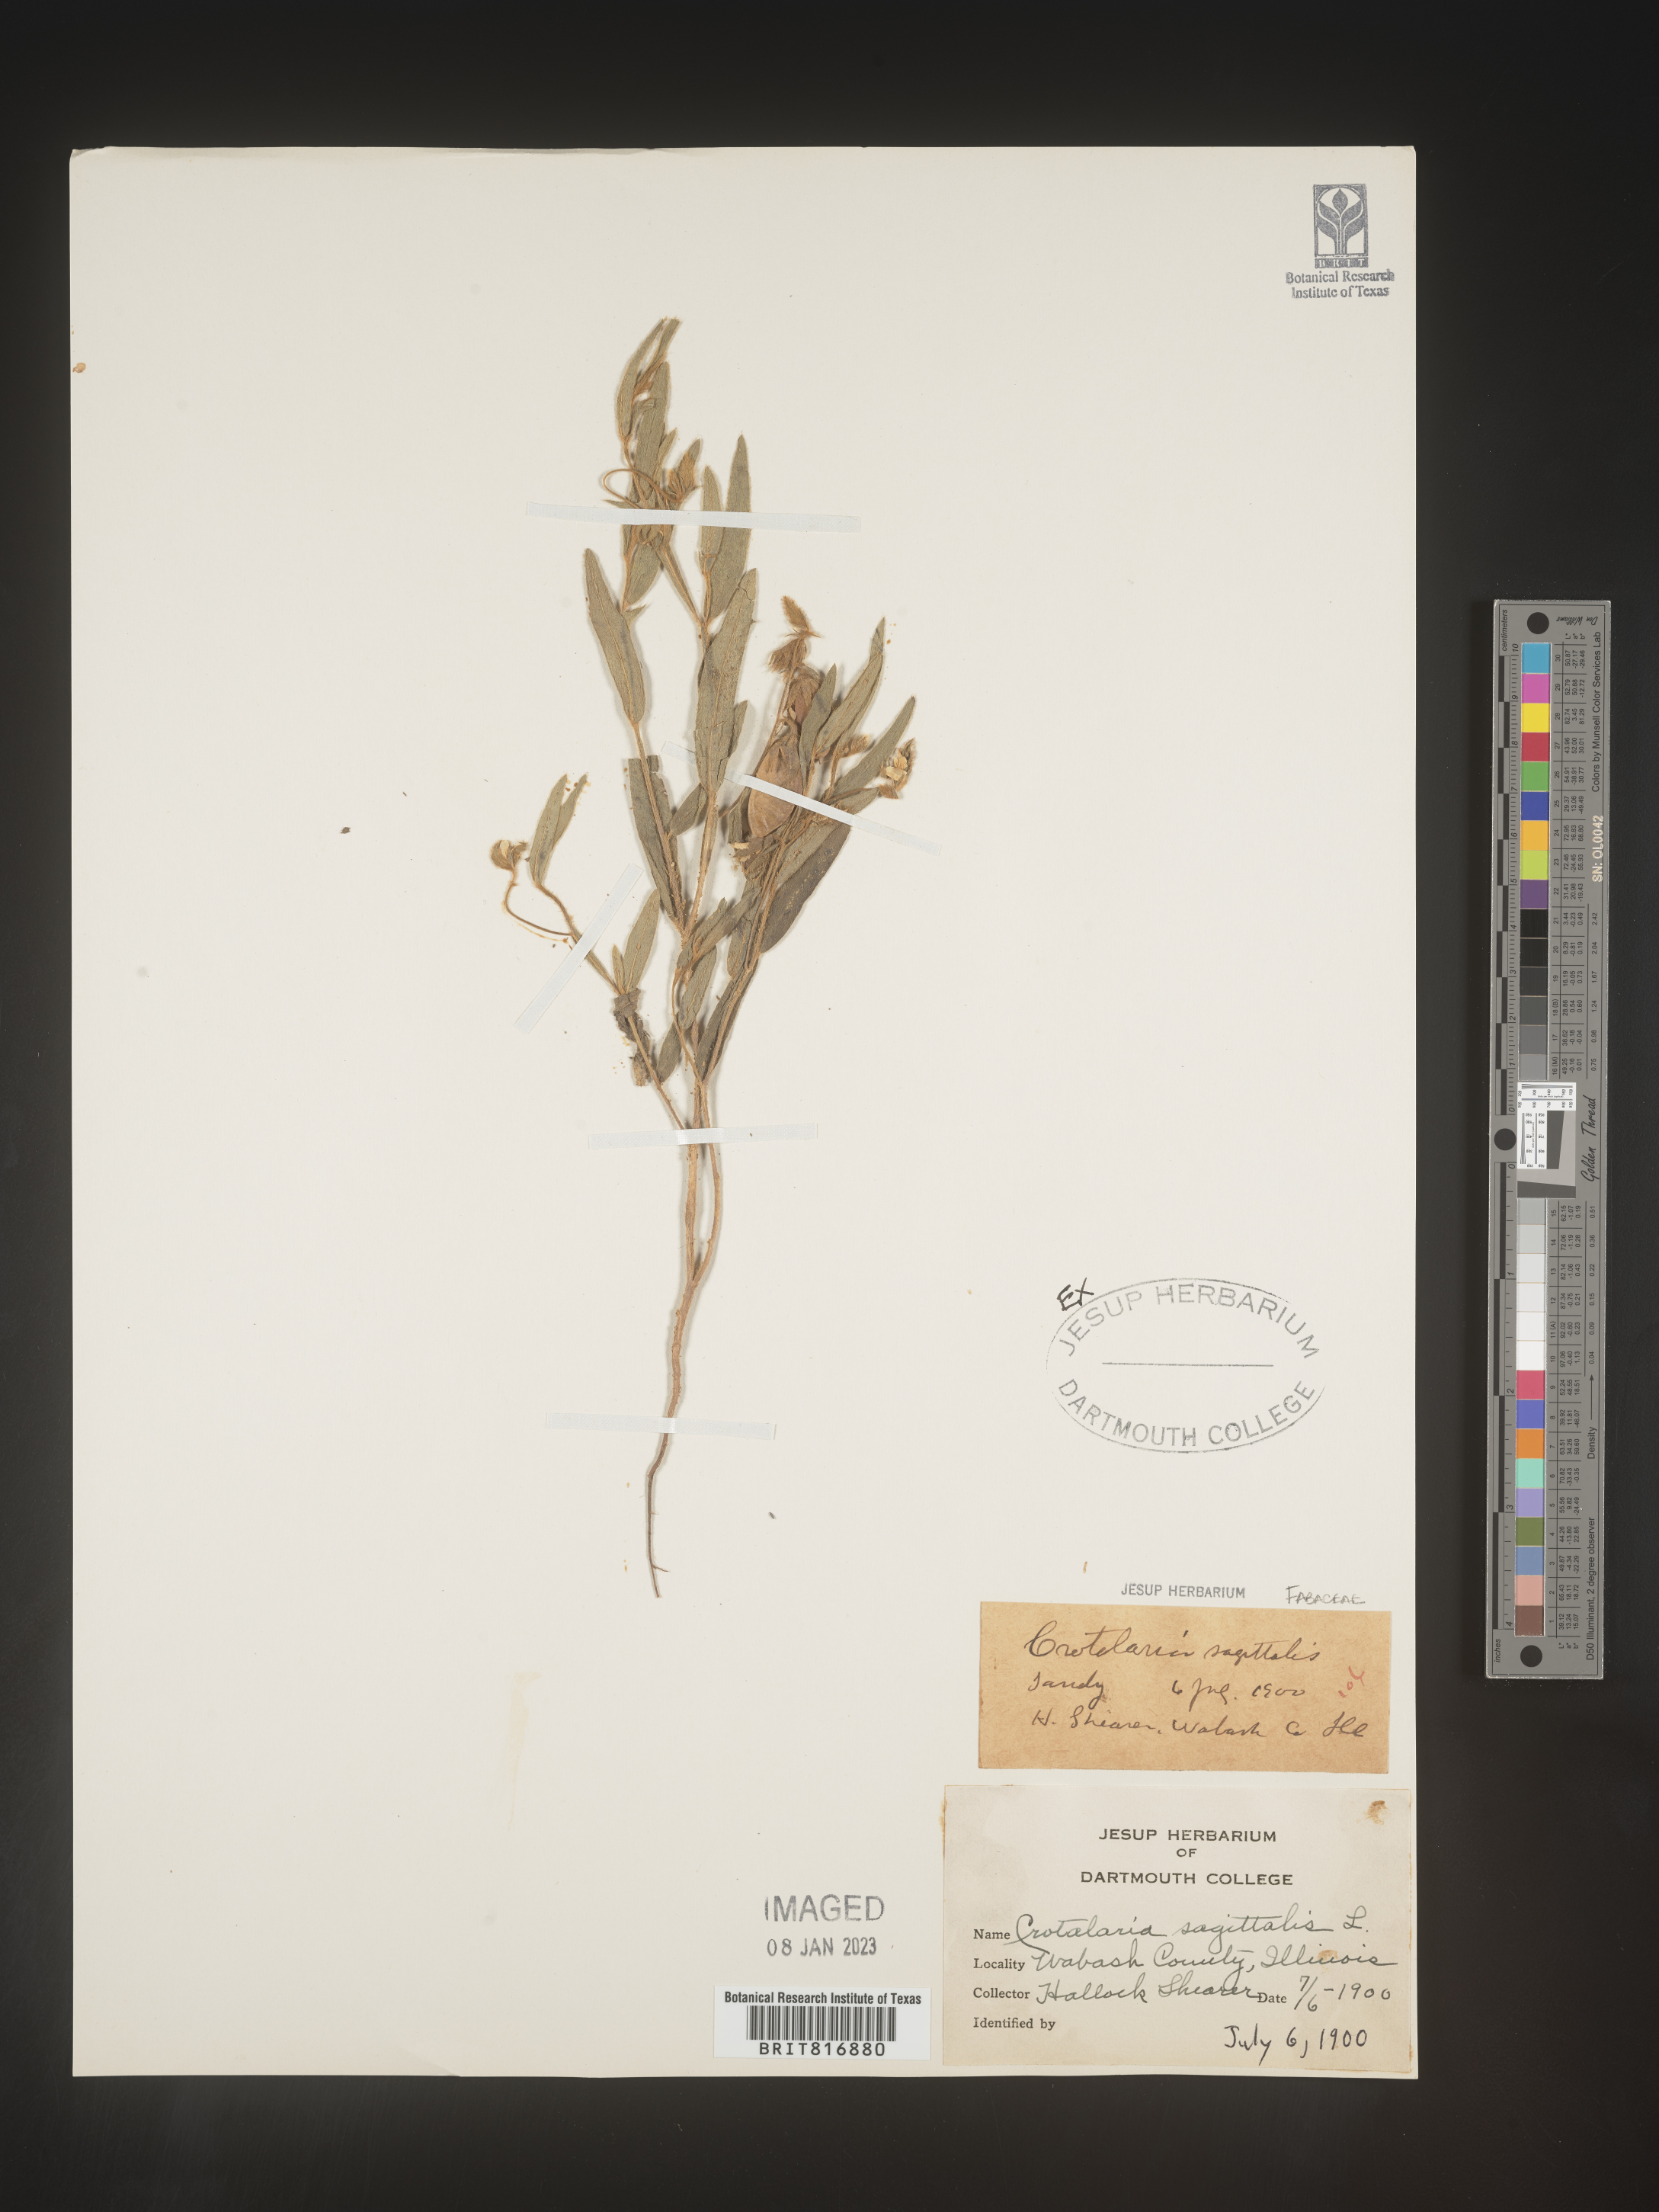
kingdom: Plantae
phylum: Tracheophyta
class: Magnoliopsida
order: Fabales
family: Fabaceae
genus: Crotalaria
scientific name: Crotalaria sagittalis
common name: Arrowhead rattlebox
